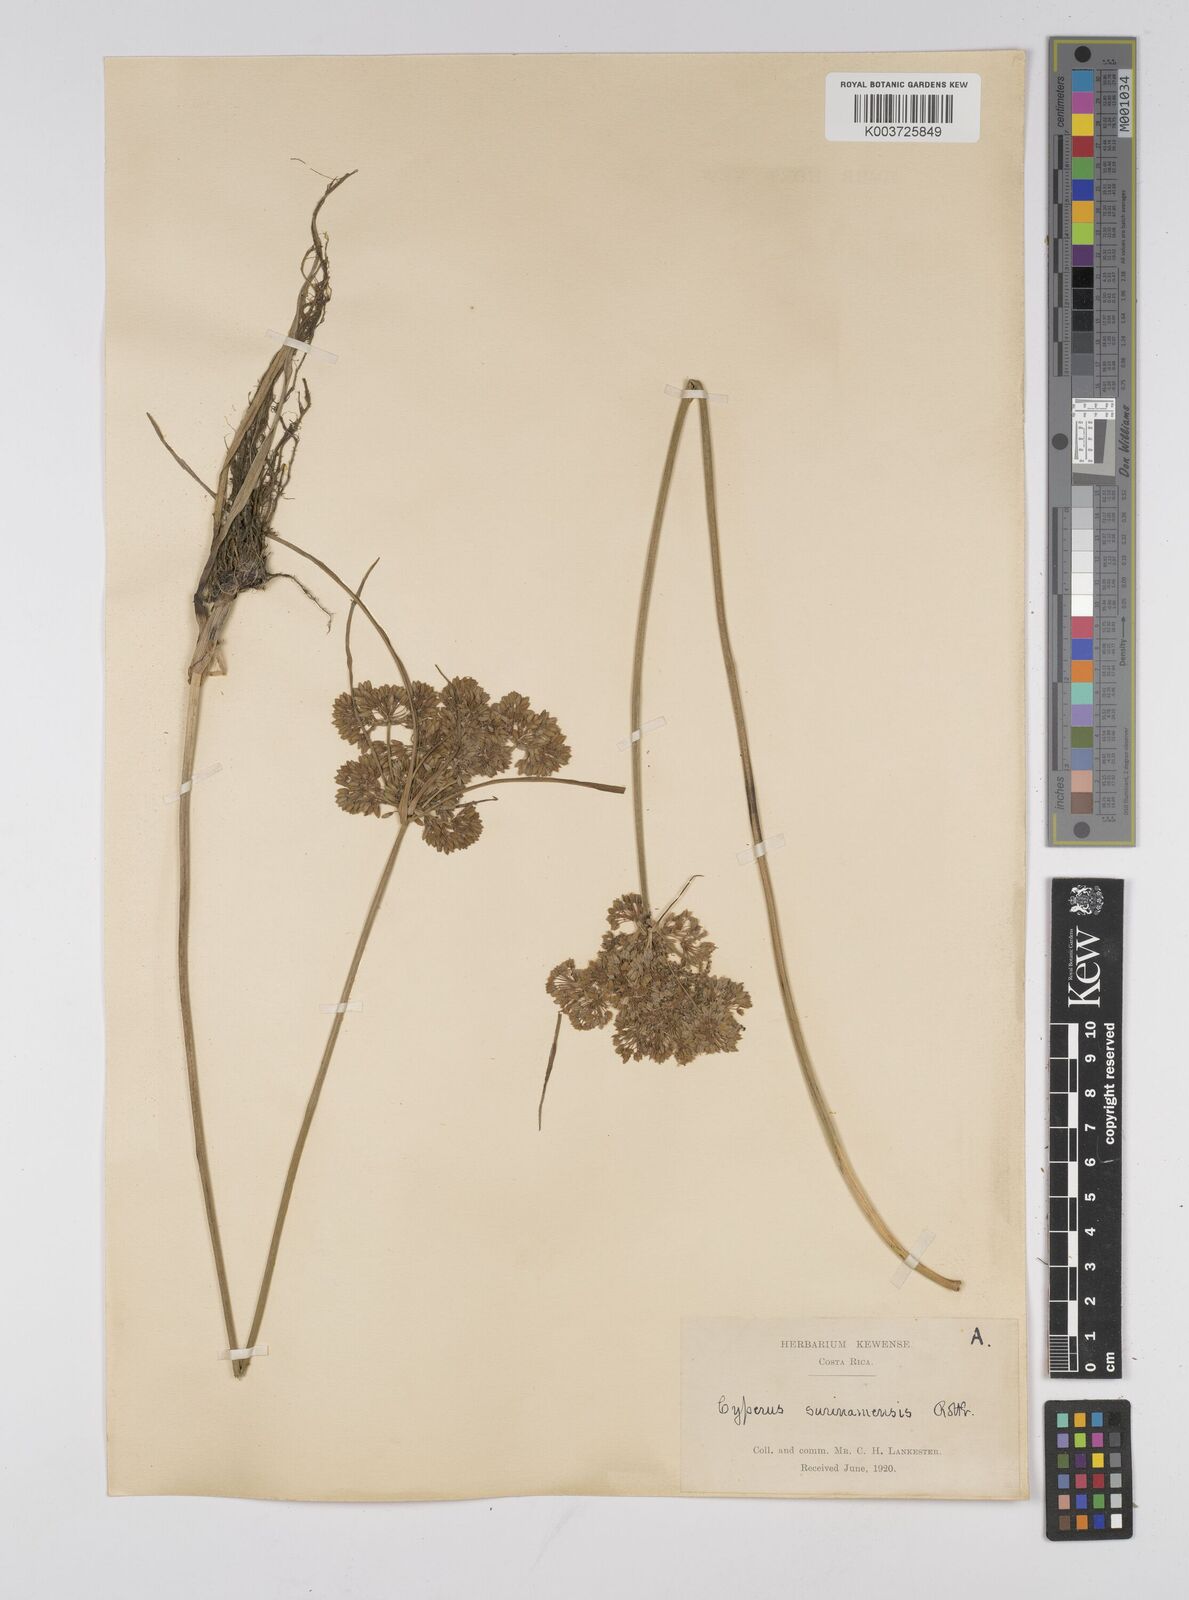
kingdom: Plantae
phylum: Tracheophyta
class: Liliopsida
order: Poales
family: Cyperaceae
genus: Cyperus
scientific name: Cyperus surinamensis
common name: Tropical flat sedge
